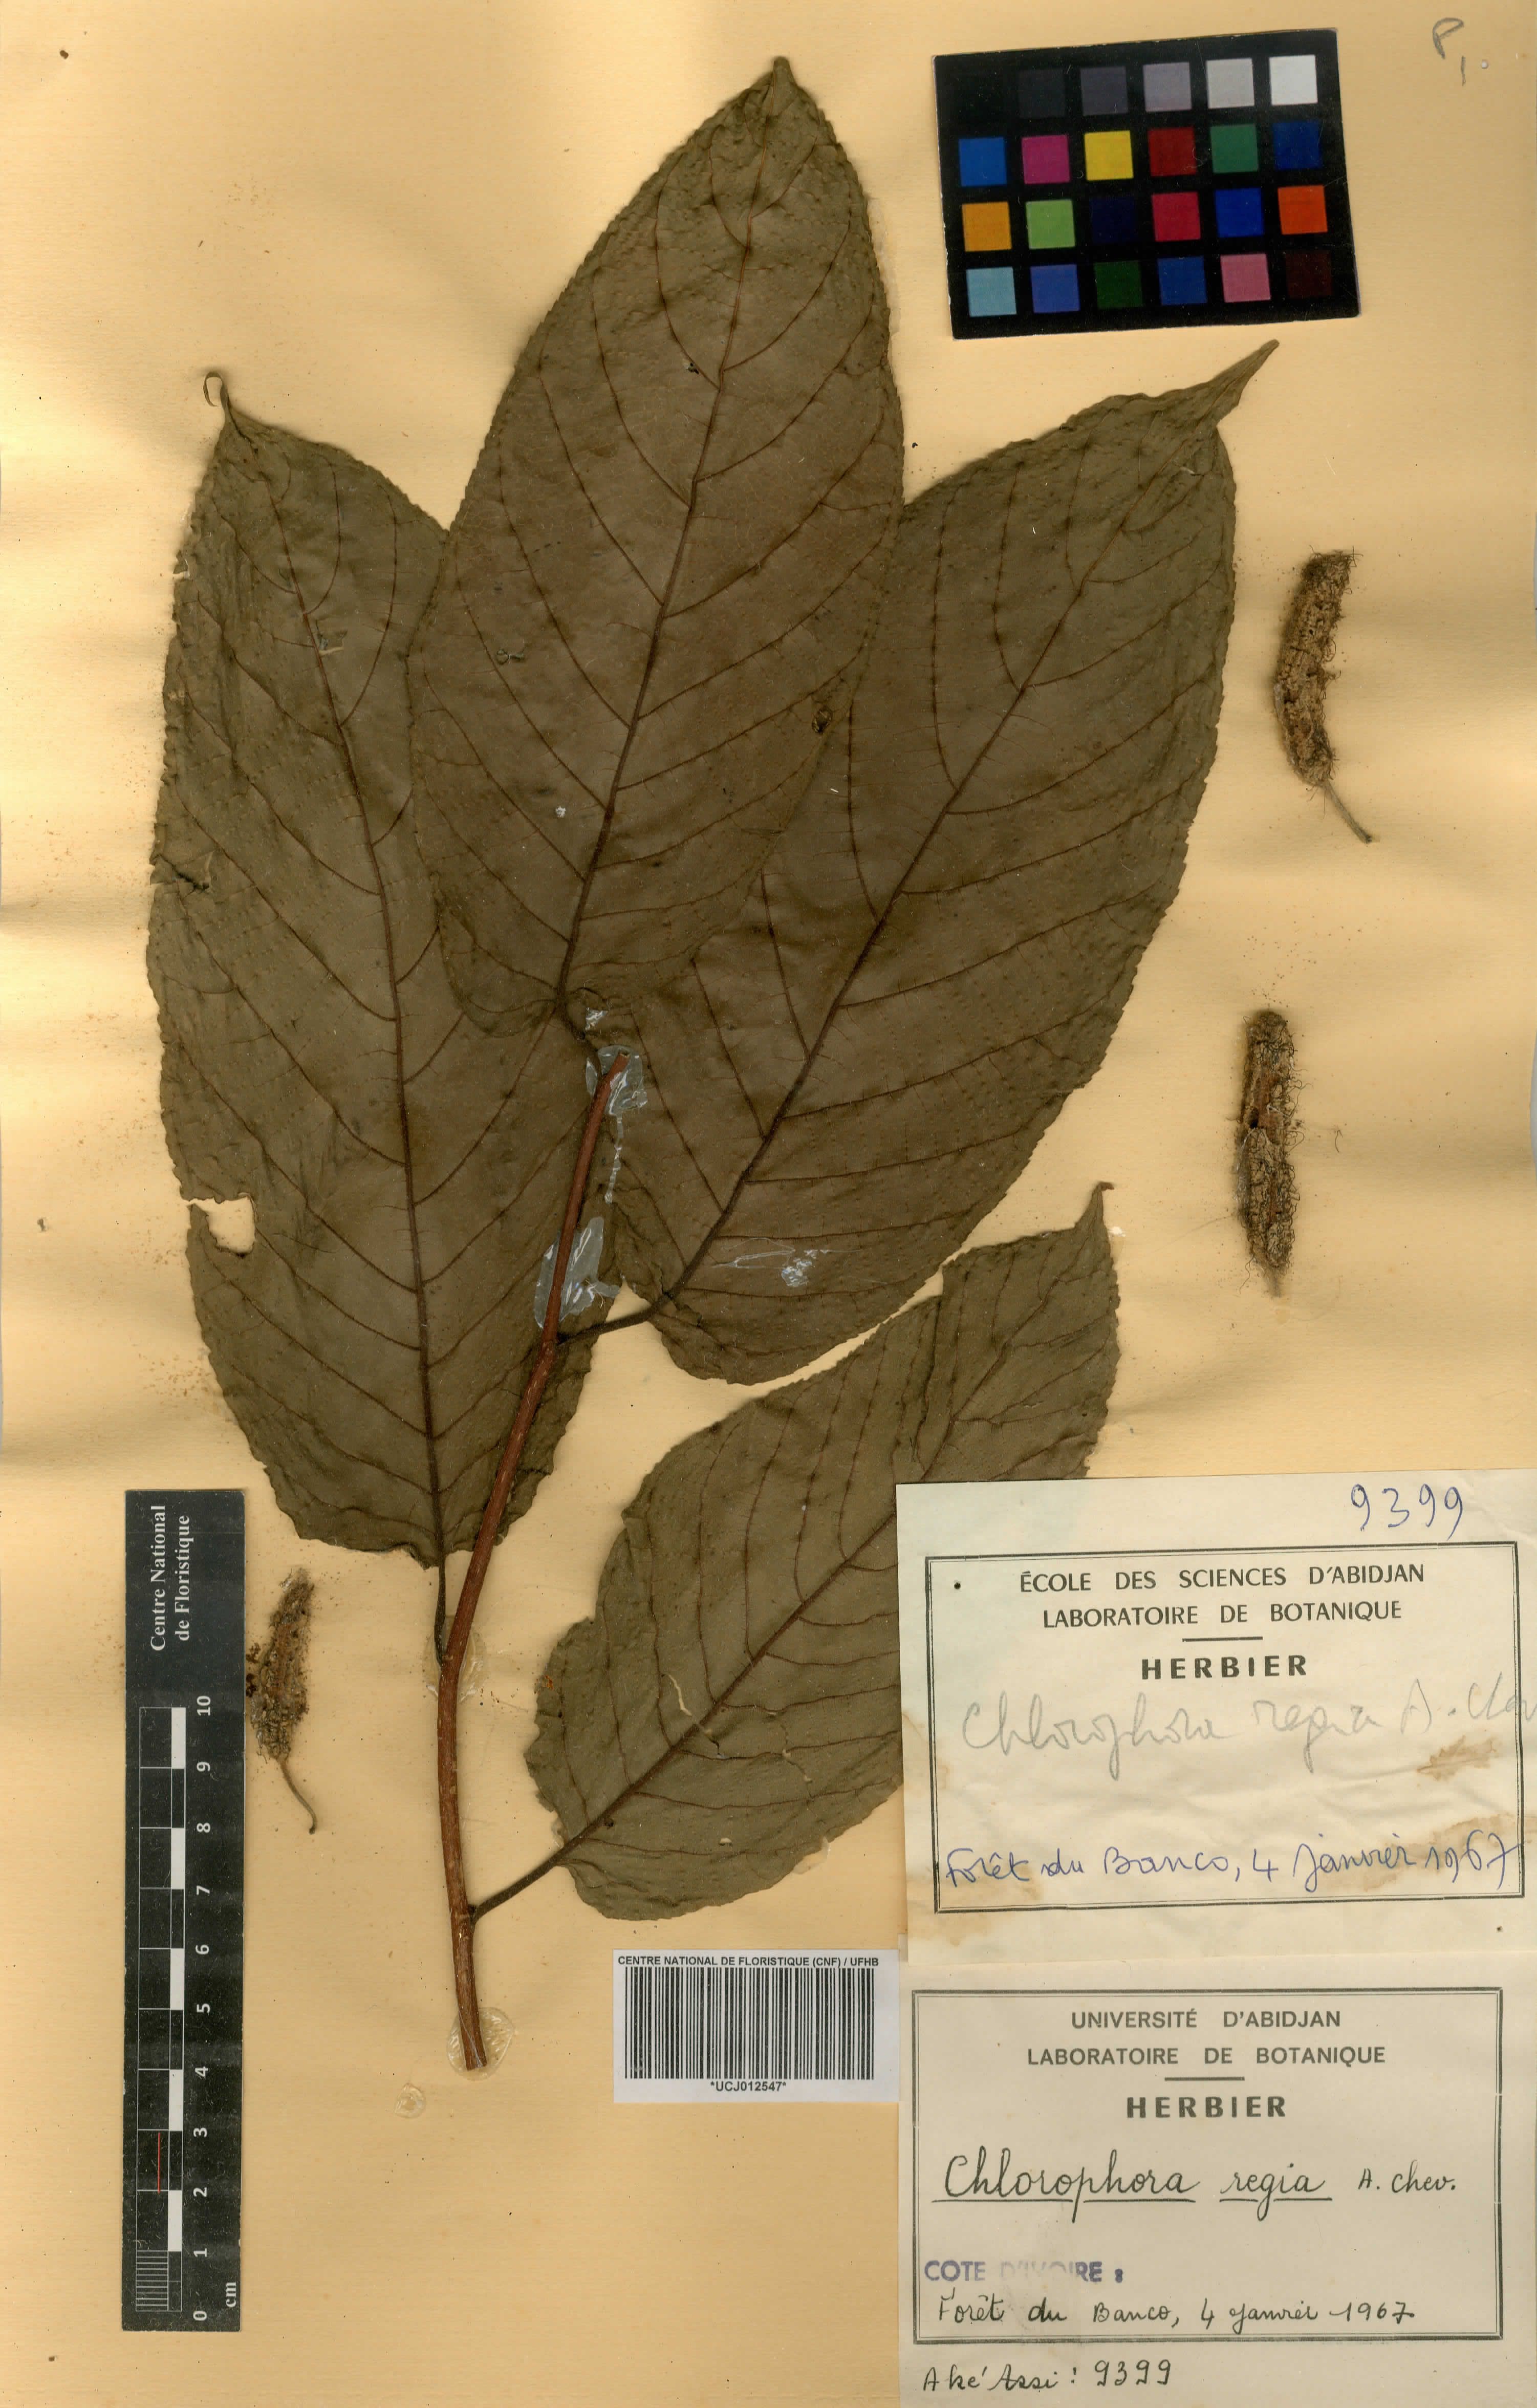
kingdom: Plantae
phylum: Tracheophyta
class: Magnoliopsida
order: Rosales
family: Moraceae
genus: Milicia
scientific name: Milicia regia
